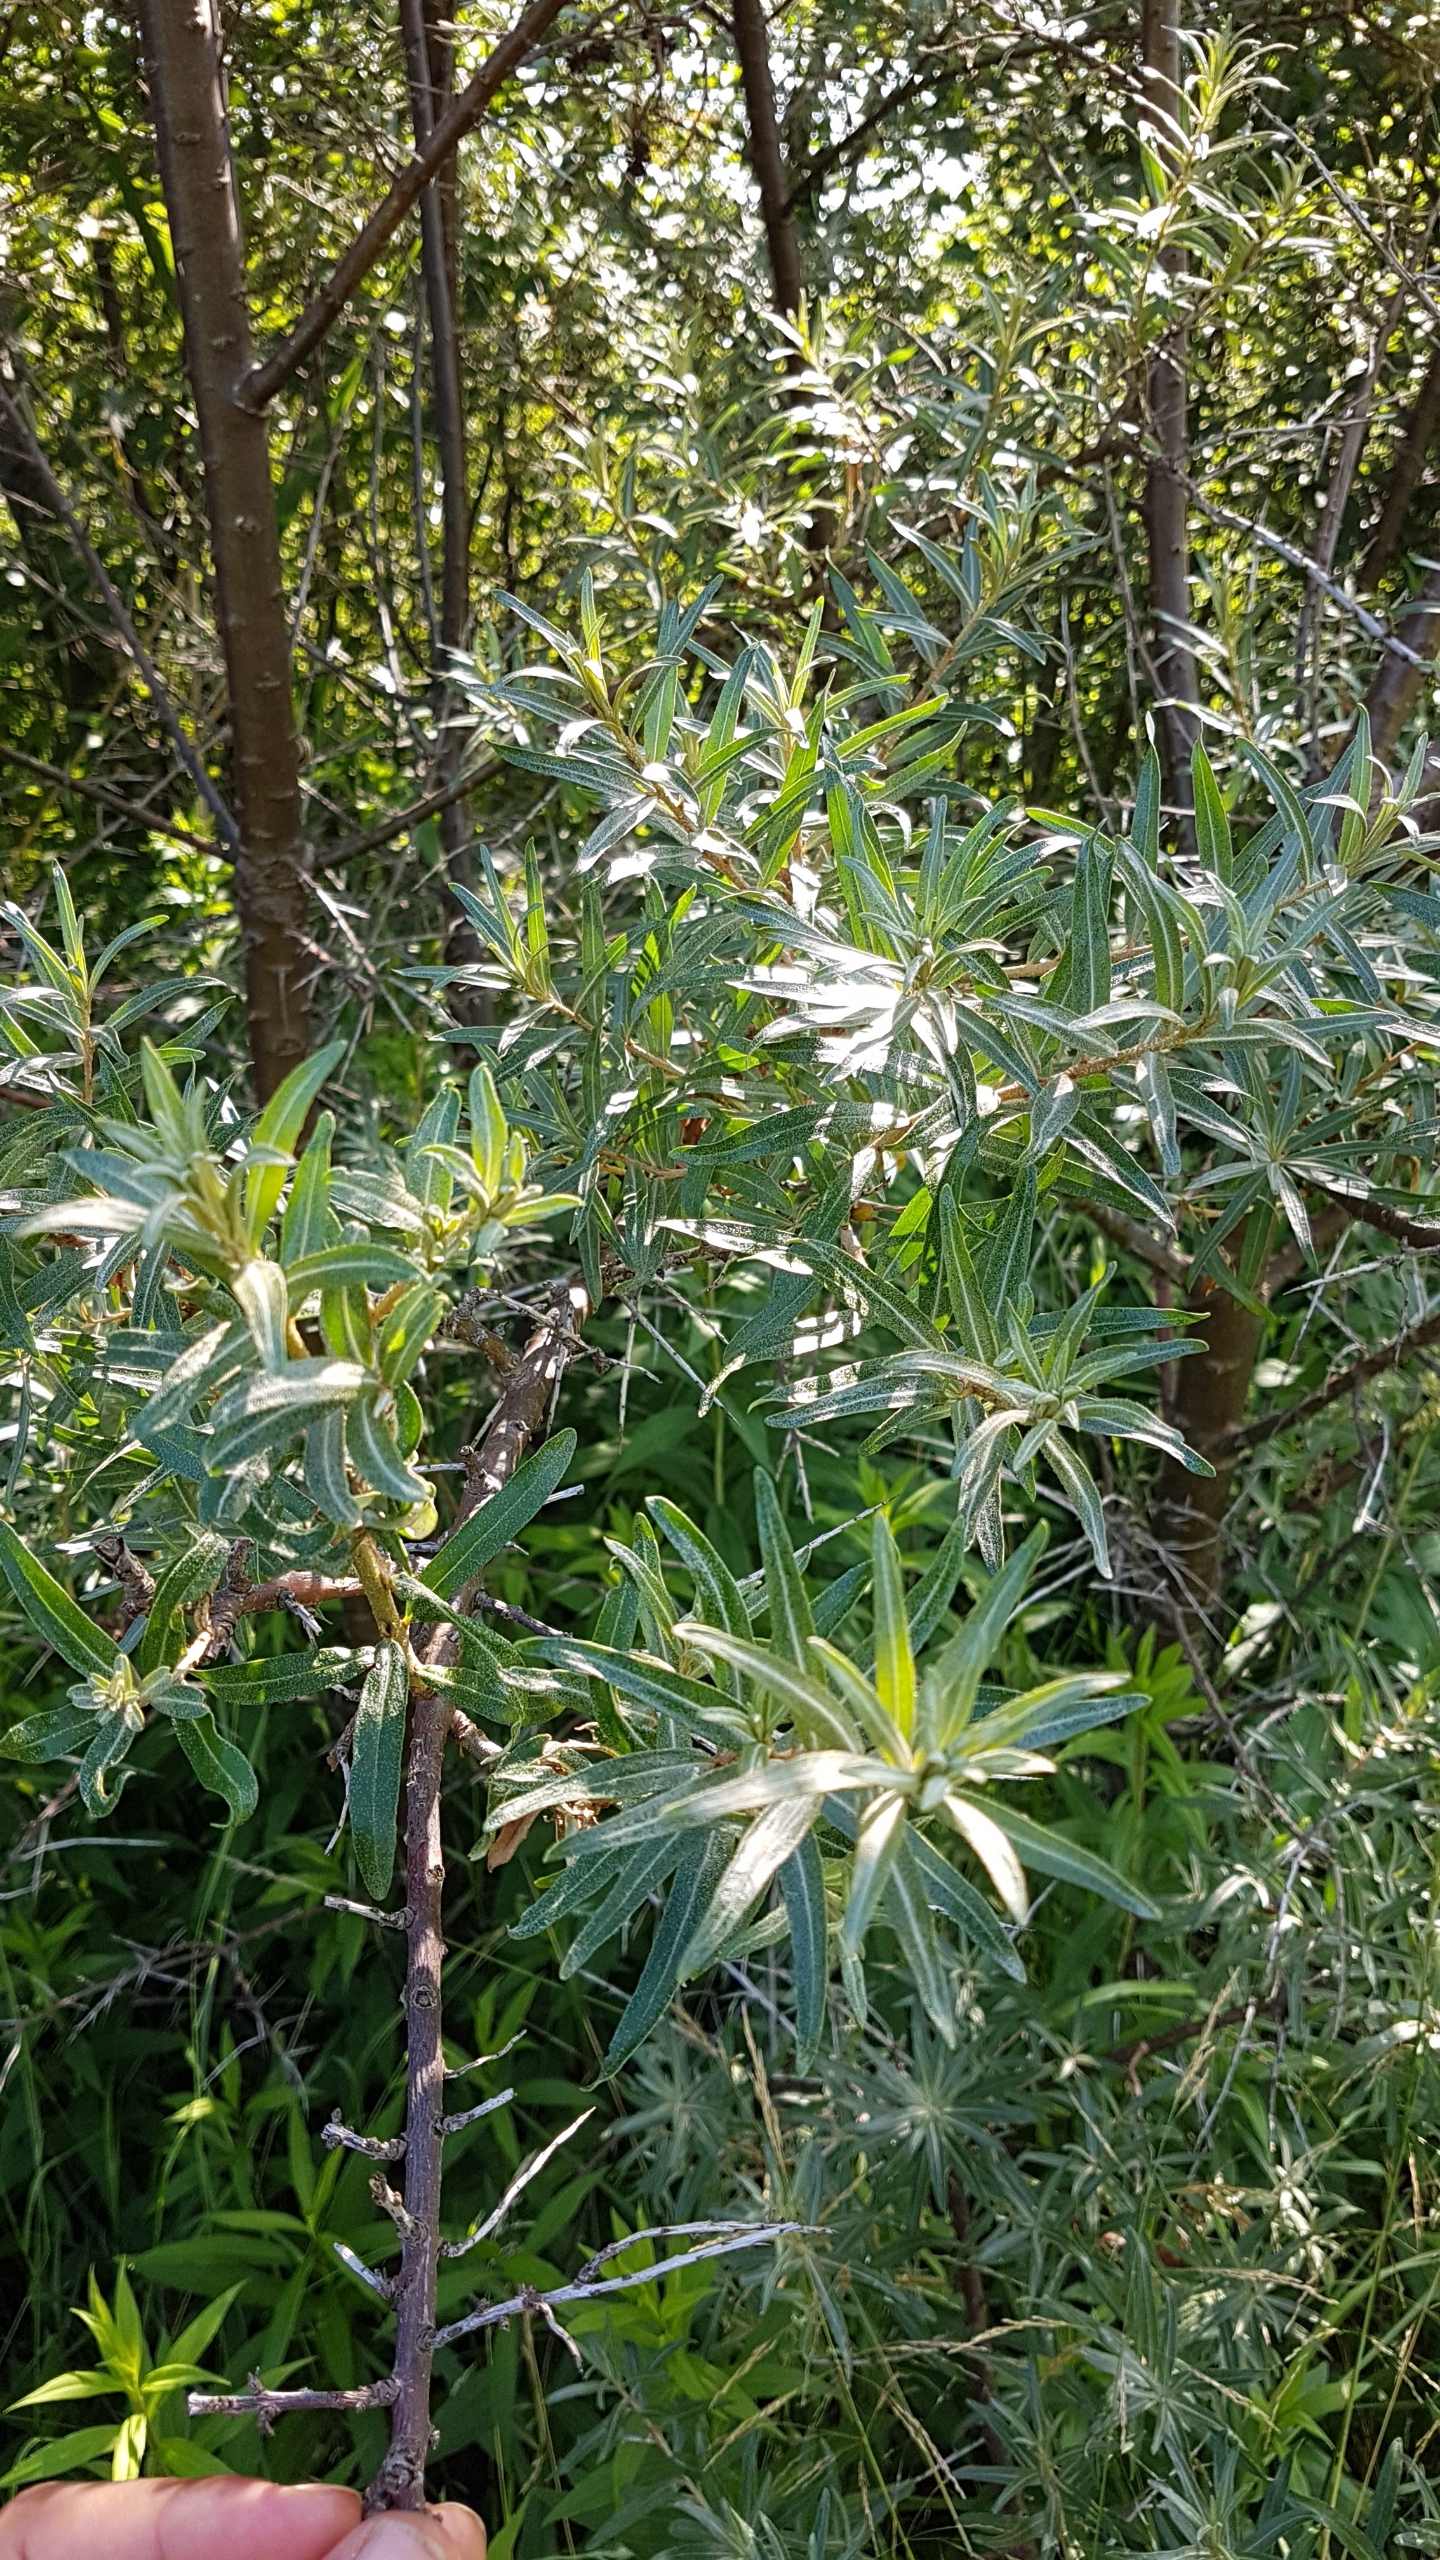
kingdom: Plantae
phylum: Tracheophyta
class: Magnoliopsida
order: Rosales
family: Elaeagnaceae
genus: Hippophae
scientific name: Hippophae rhamnoides
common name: Havtorn
